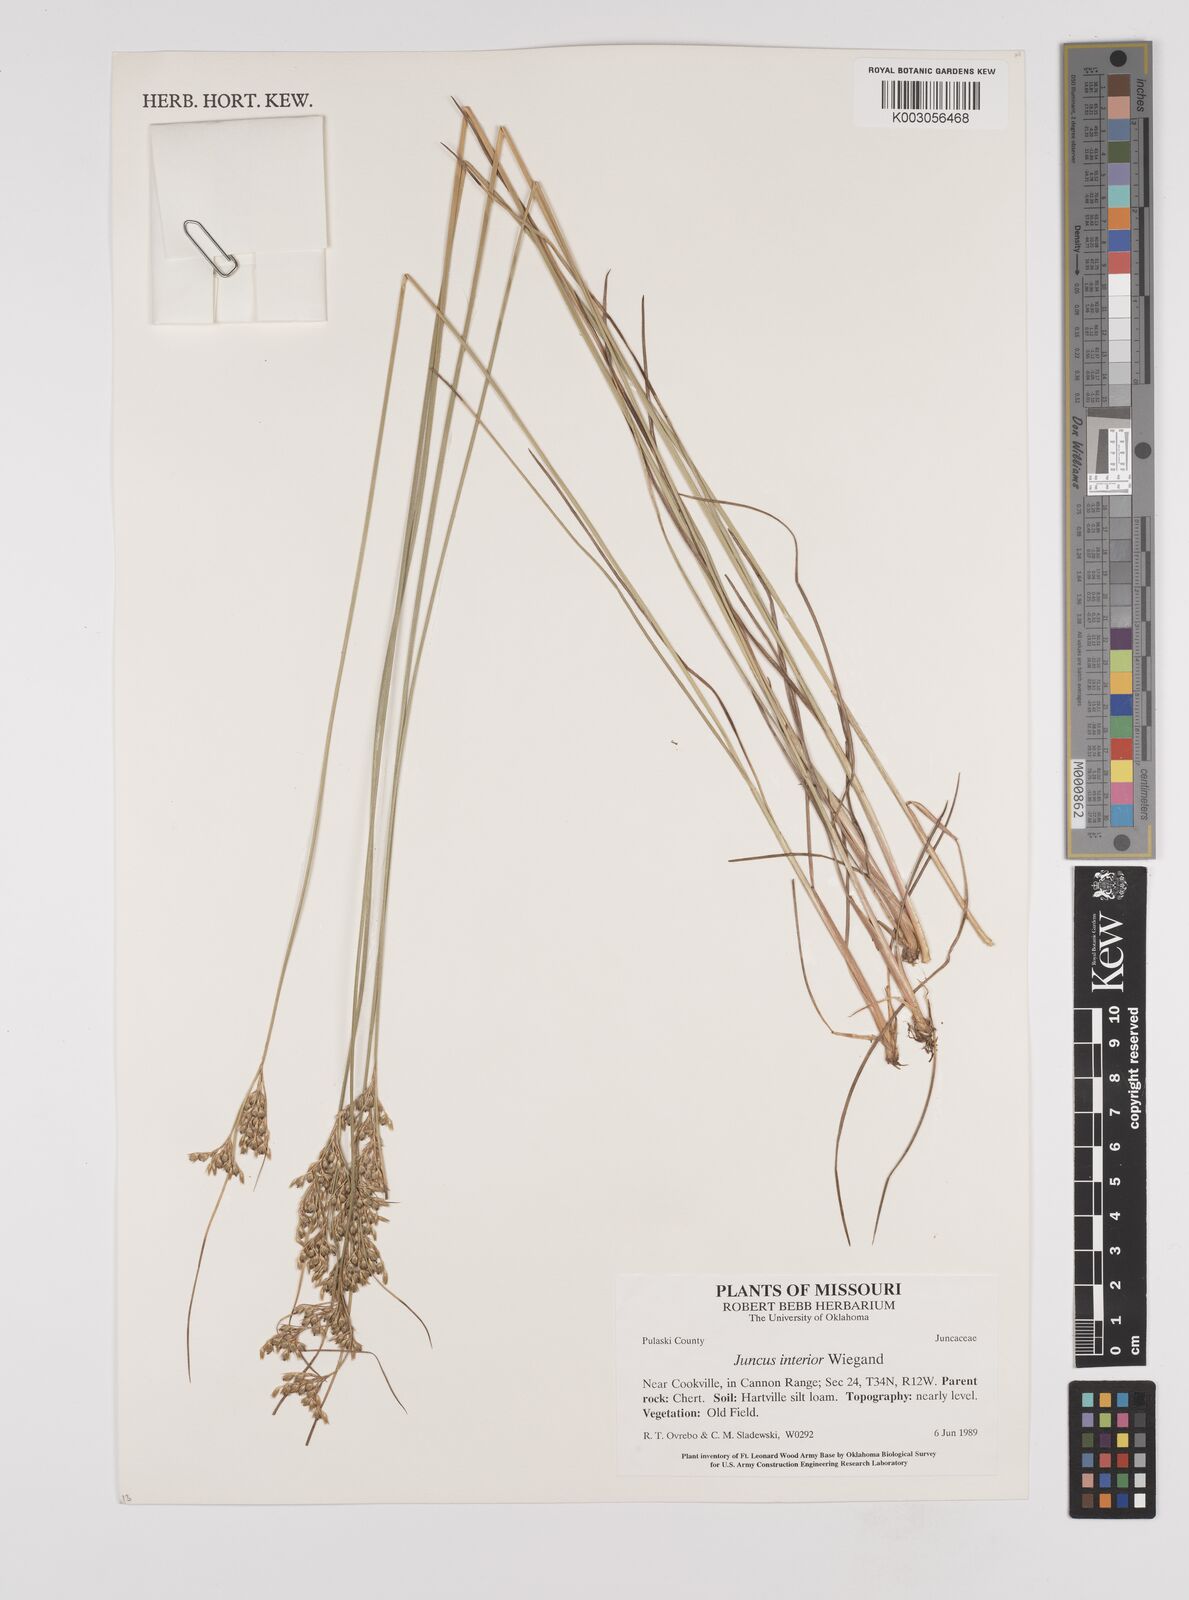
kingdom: Plantae
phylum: Tracheophyta
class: Liliopsida
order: Poales
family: Juncaceae
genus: Juncus
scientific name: Juncus interior
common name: Interior rush
